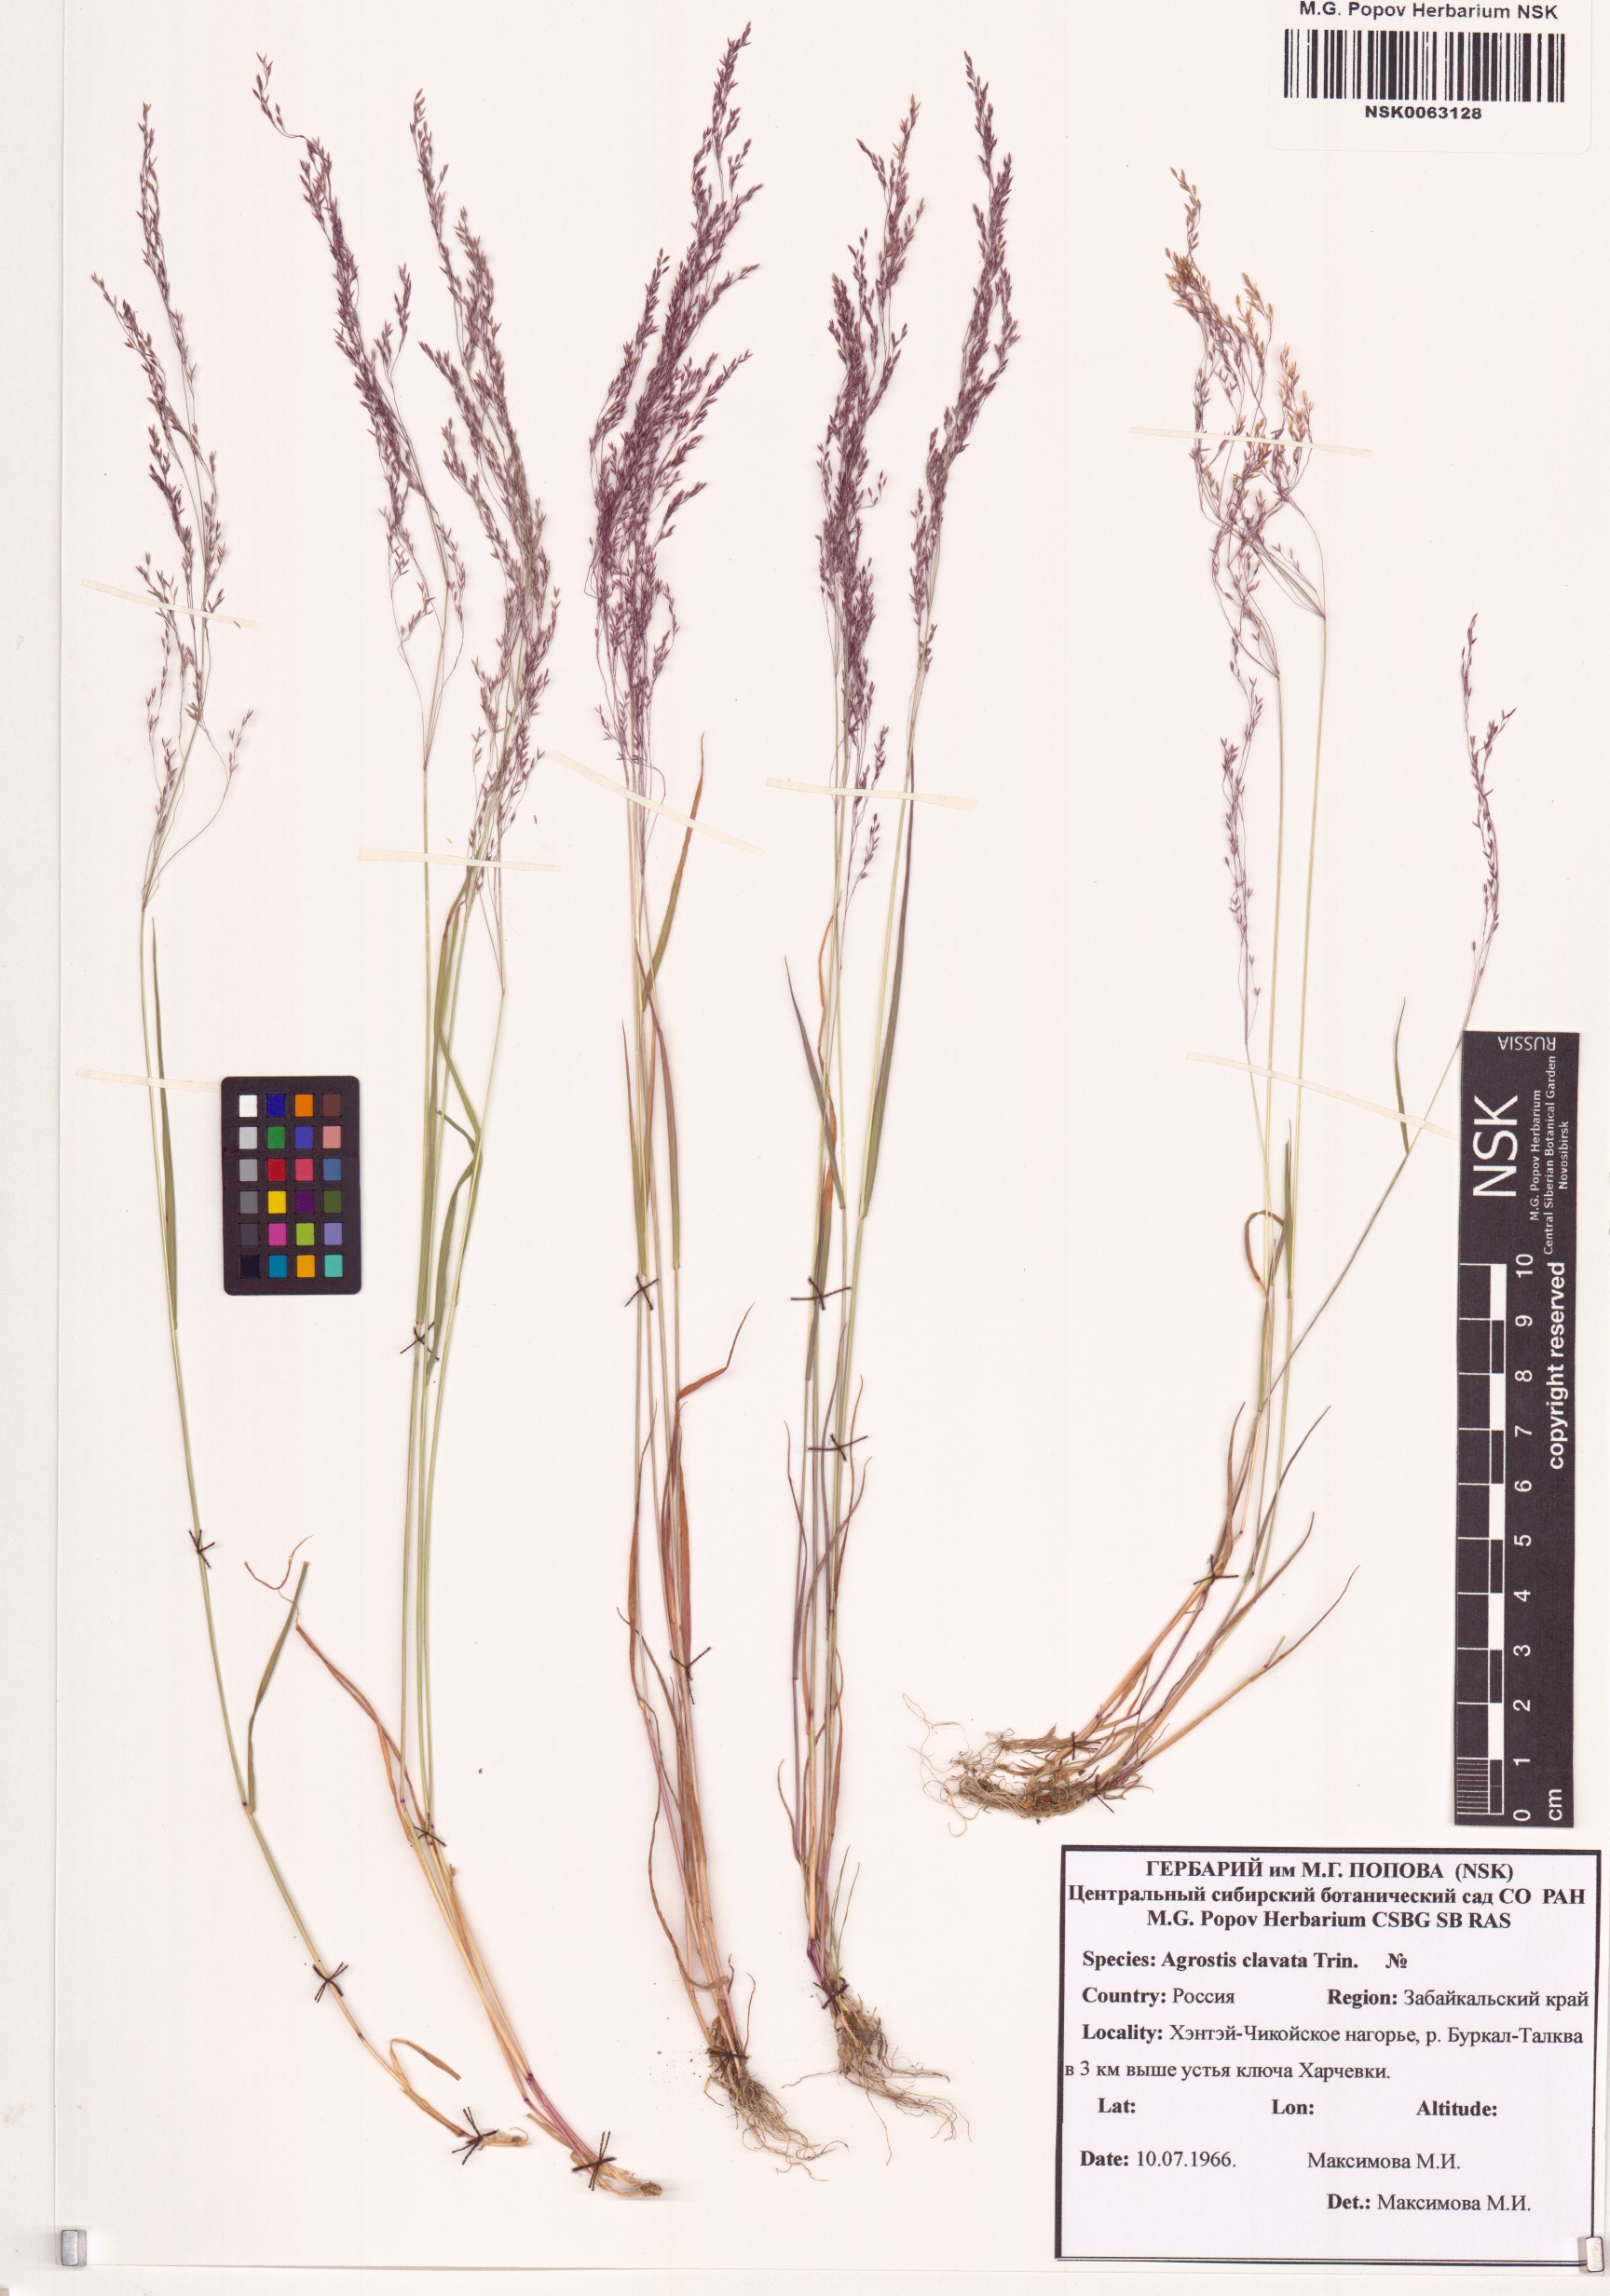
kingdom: Plantae
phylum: Tracheophyta
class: Liliopsida
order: Poales
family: Poaceae
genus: Agrostis
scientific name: Agrostis clavata
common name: Clavate bent
